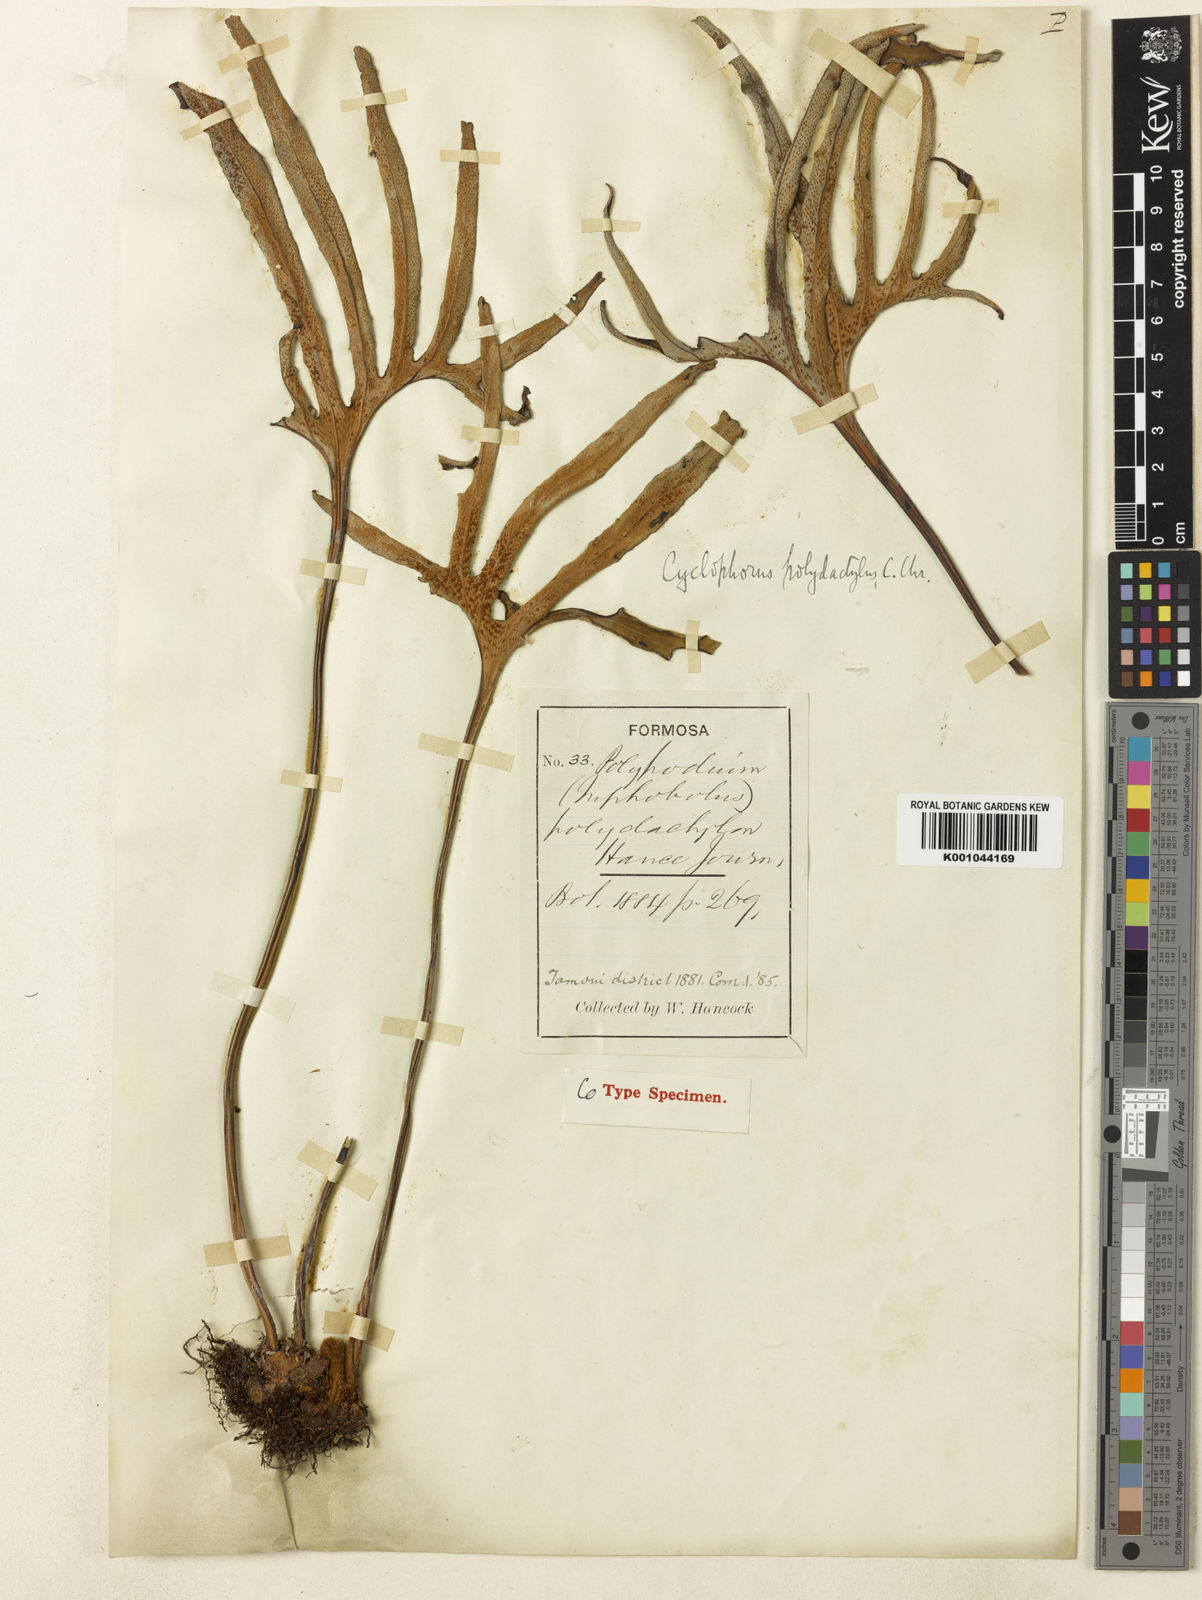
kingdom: Plantae
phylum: Tracheophyta
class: Polypodiopsida
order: Polypodiales
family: Polypodiaceae
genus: Pyrrosia
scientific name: Pyrrosia polydactyla
